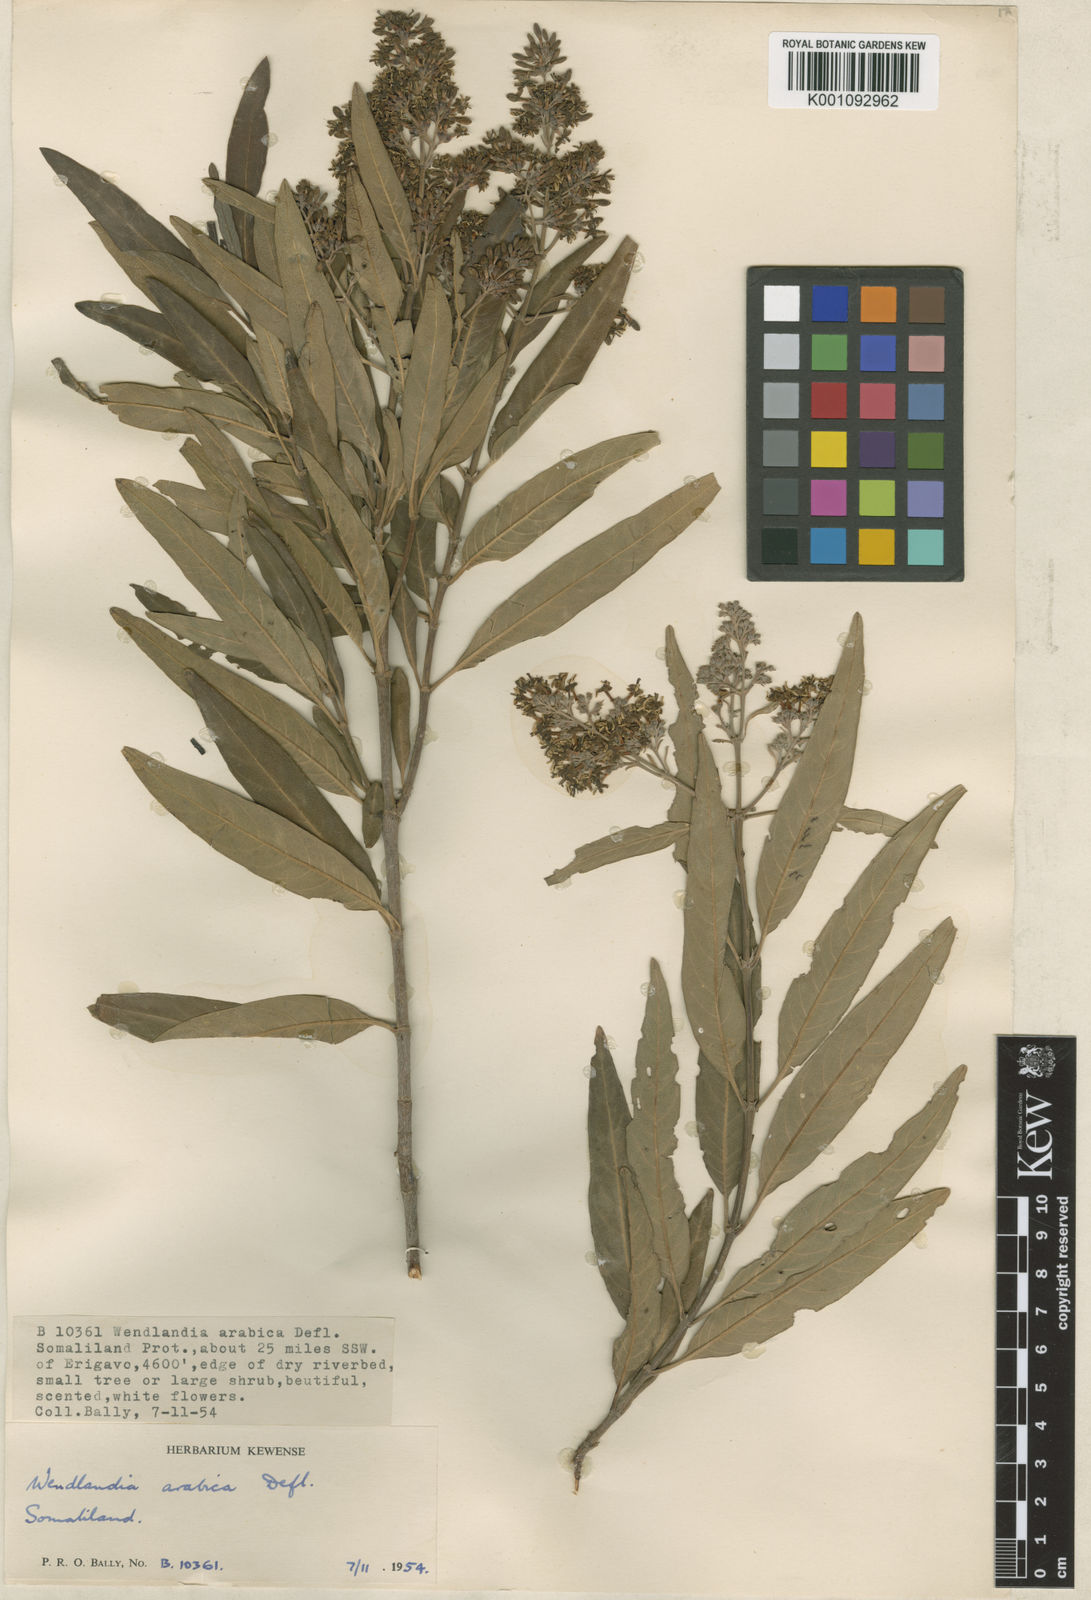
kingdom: Plantae
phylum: Tracheophyta
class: Magnoliopsida
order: Gentianales
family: Rubiaceae
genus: Wendlandia
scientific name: Wendlandia arabica
